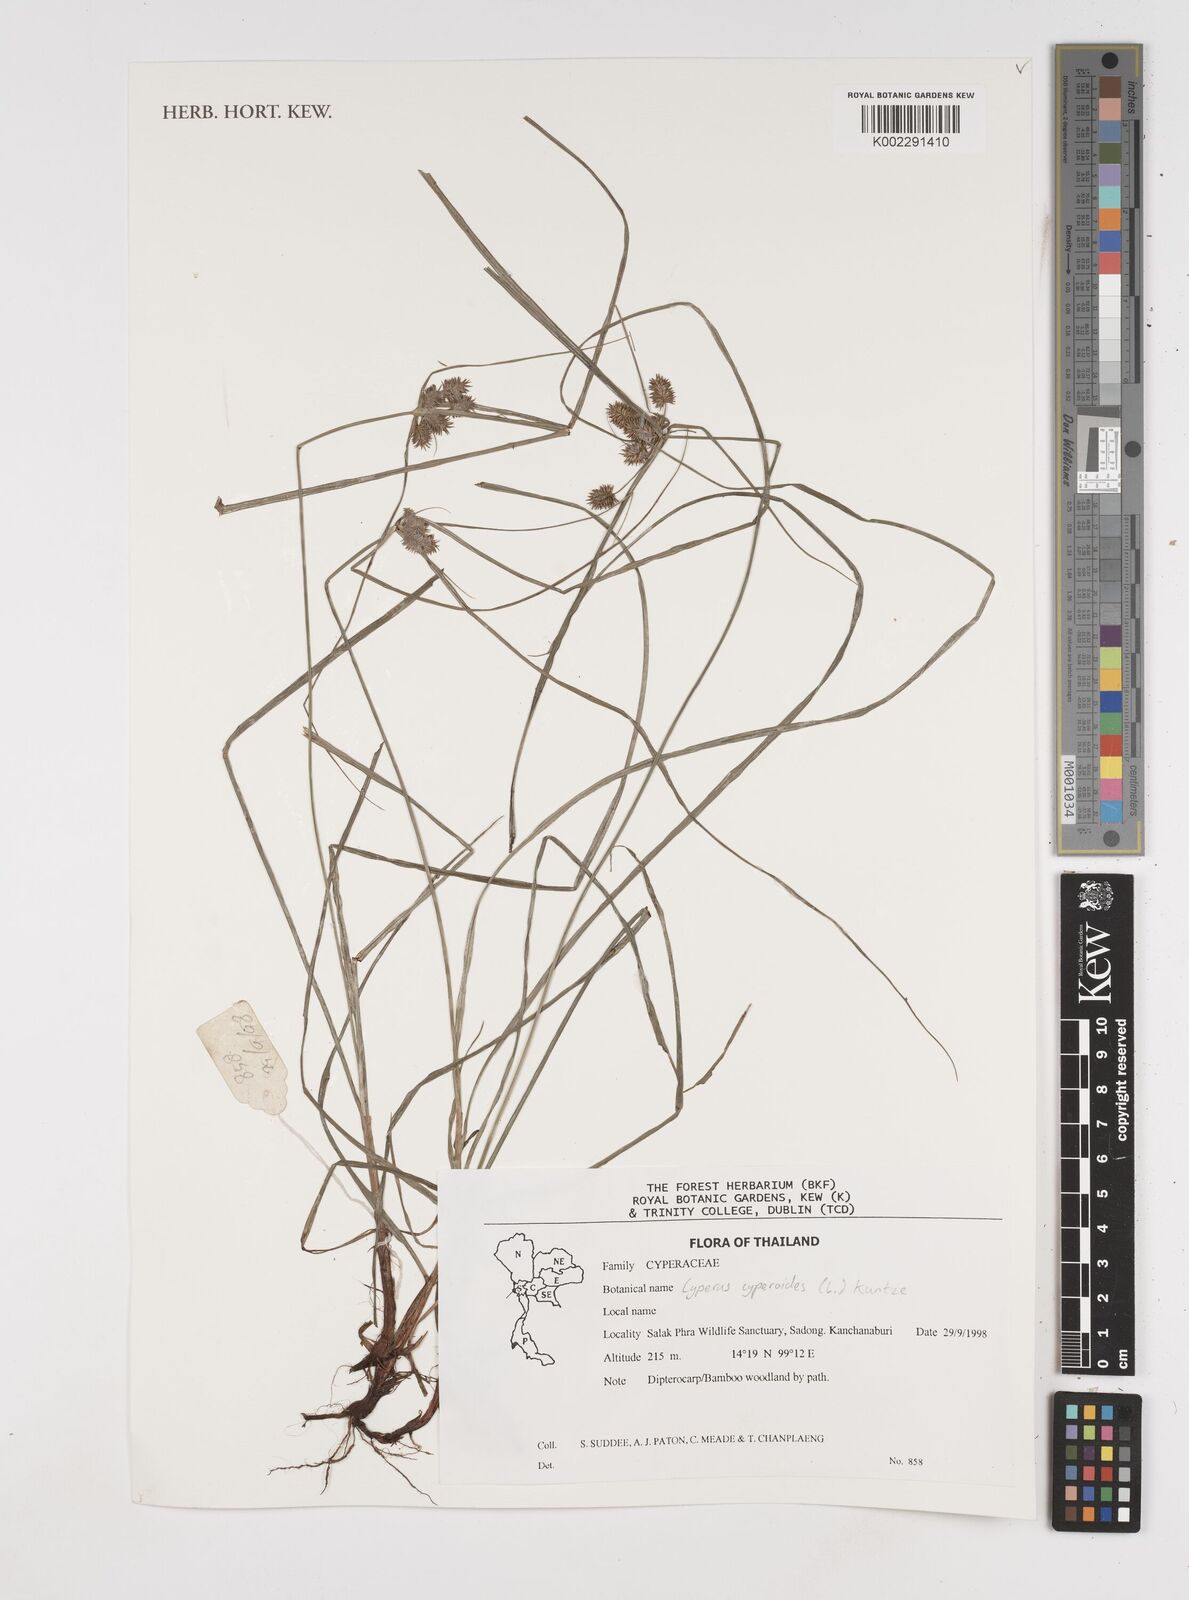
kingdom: Plantae
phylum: Tracheophyta
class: Liliopsida
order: Poales
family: Cyperaceae
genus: Cyperus
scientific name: Cyperus cyperoides
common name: Pacific island flat sedge
